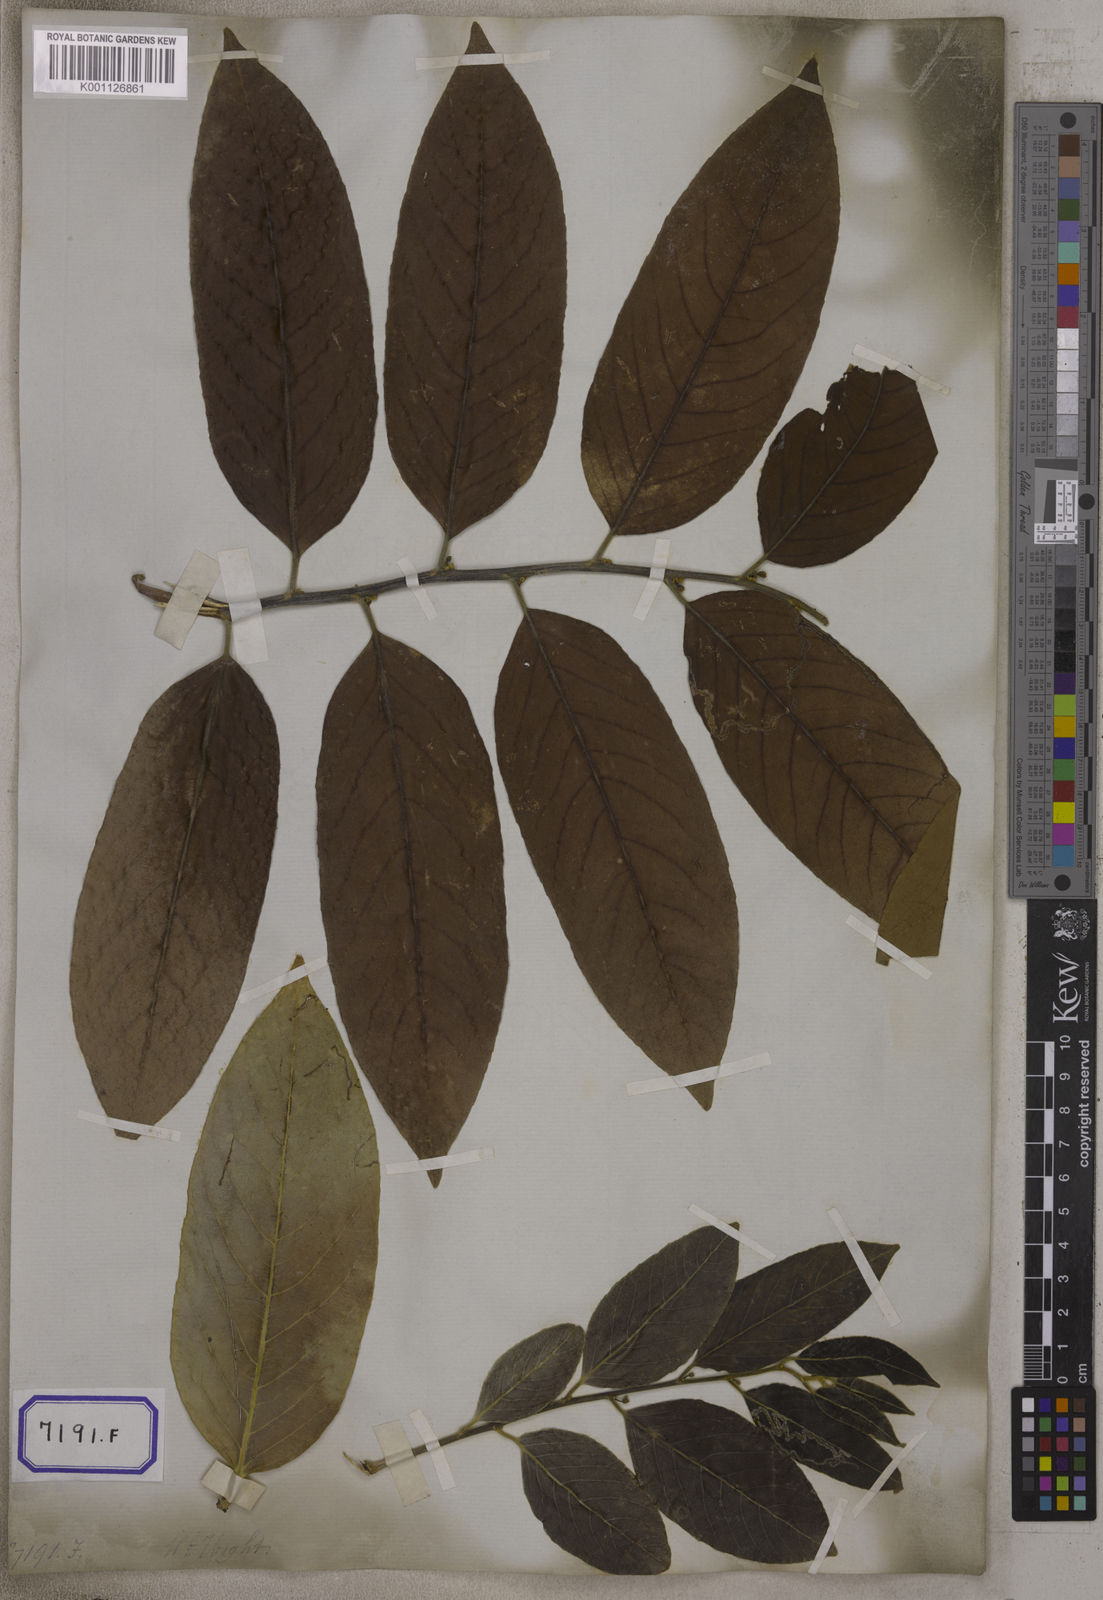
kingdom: Plantae
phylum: Tracheophyta
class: Magnoliopsida
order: Malpighiales
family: Salicaceae
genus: Casearia
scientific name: Casearia tomentosa
